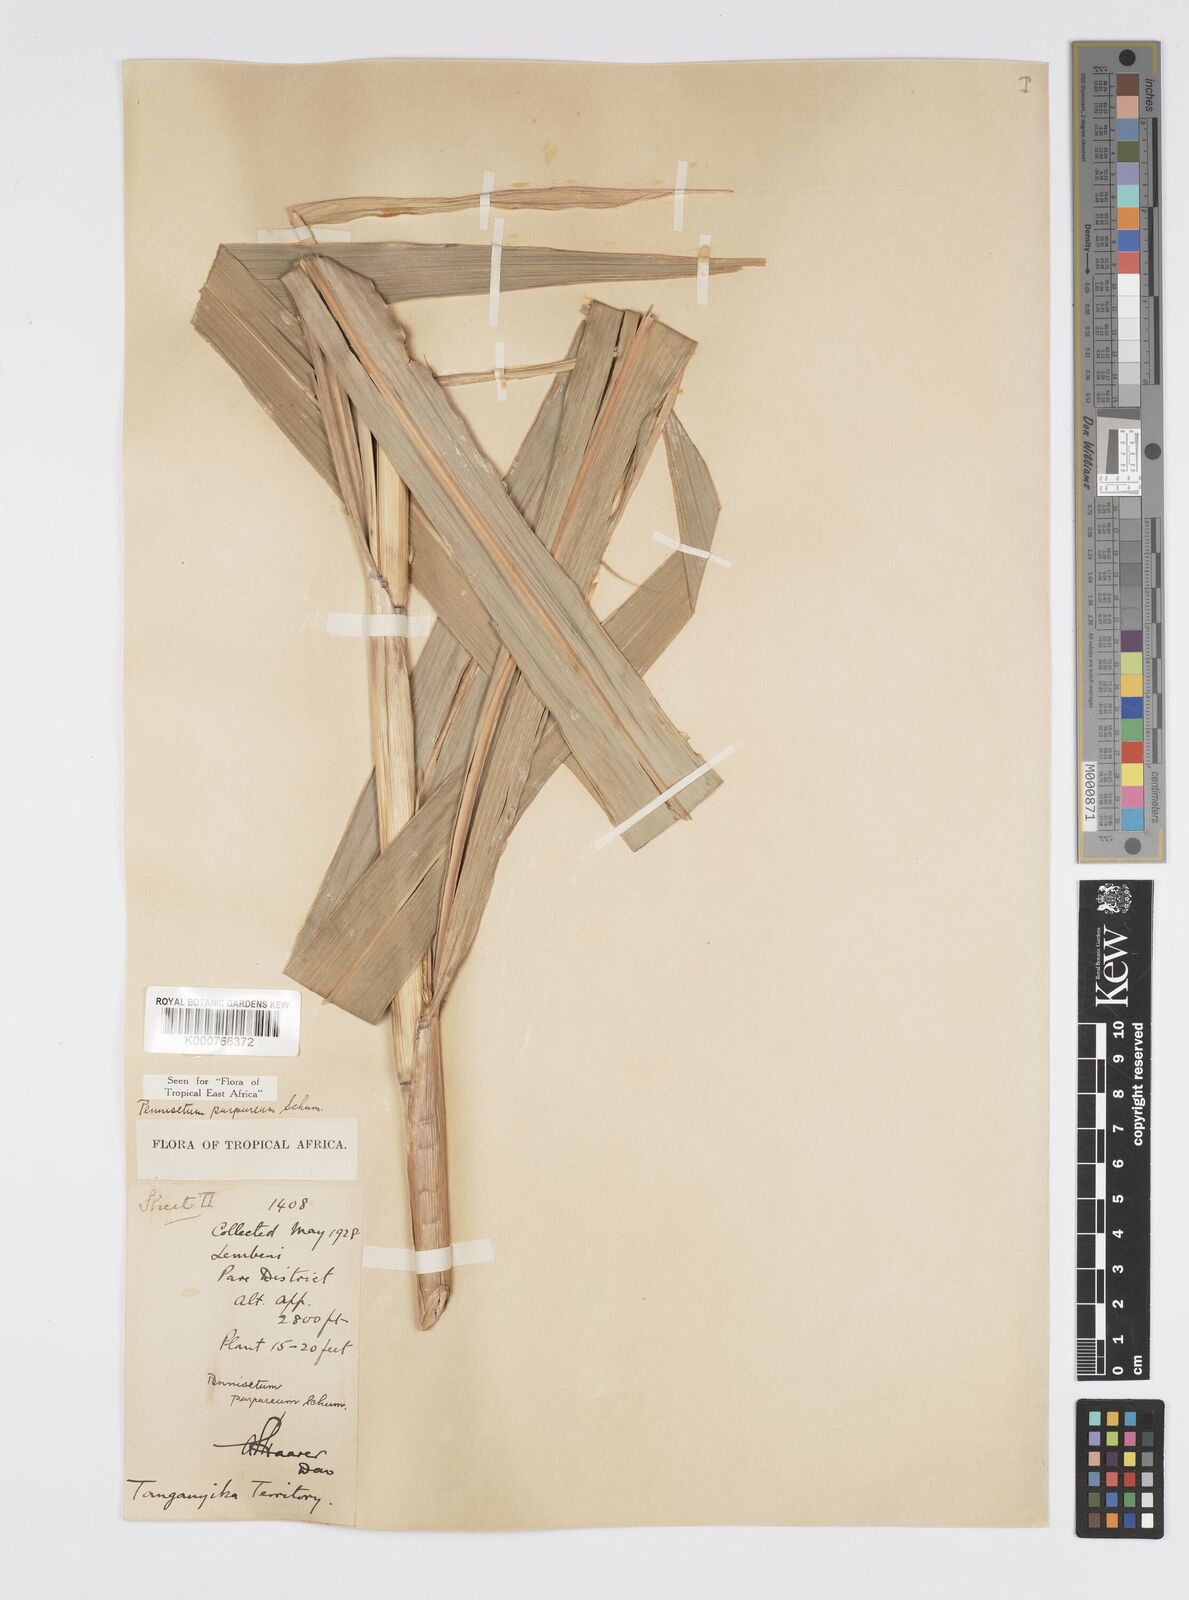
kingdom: Plantae
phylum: Tracheophyta
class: Liliopsida
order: Poales
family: Poaceae
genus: Cenchrus
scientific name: Cenchrus purpureus
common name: Elephant grass
